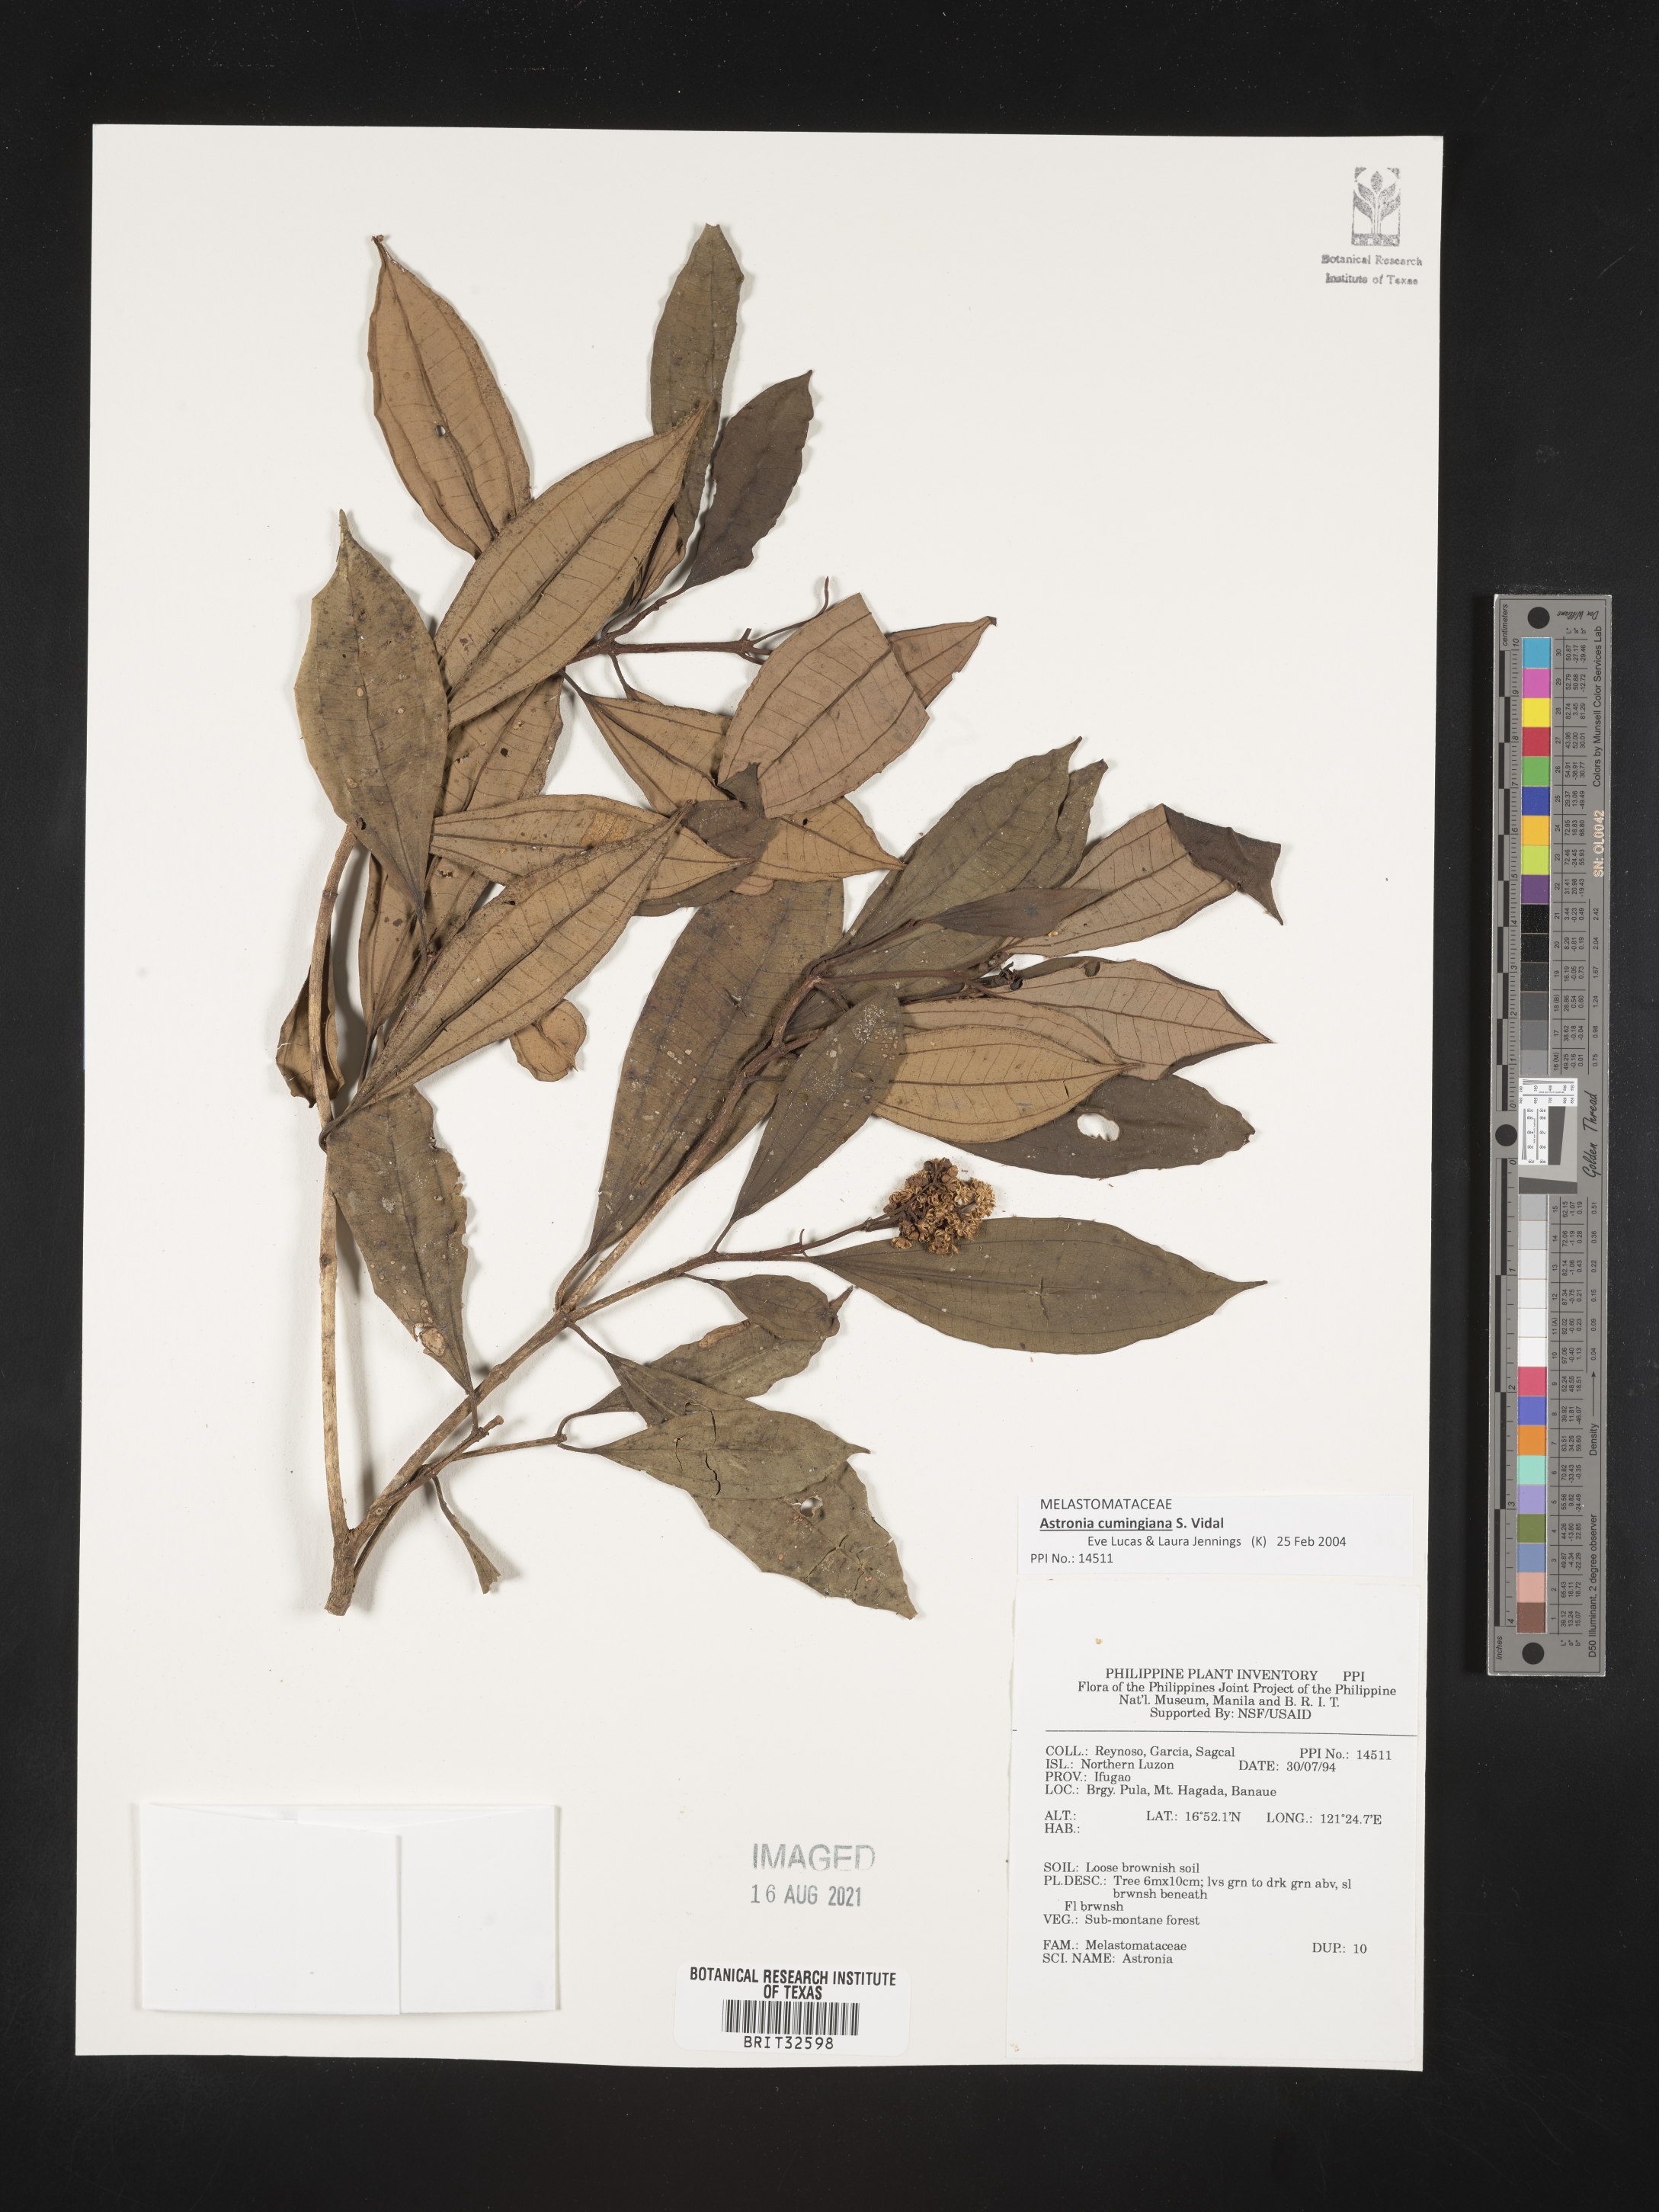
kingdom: Plantae
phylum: Tracheophyta
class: Magnoliopsida
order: Myrtales
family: Melastomataceae
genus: Astronia
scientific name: Astronia
